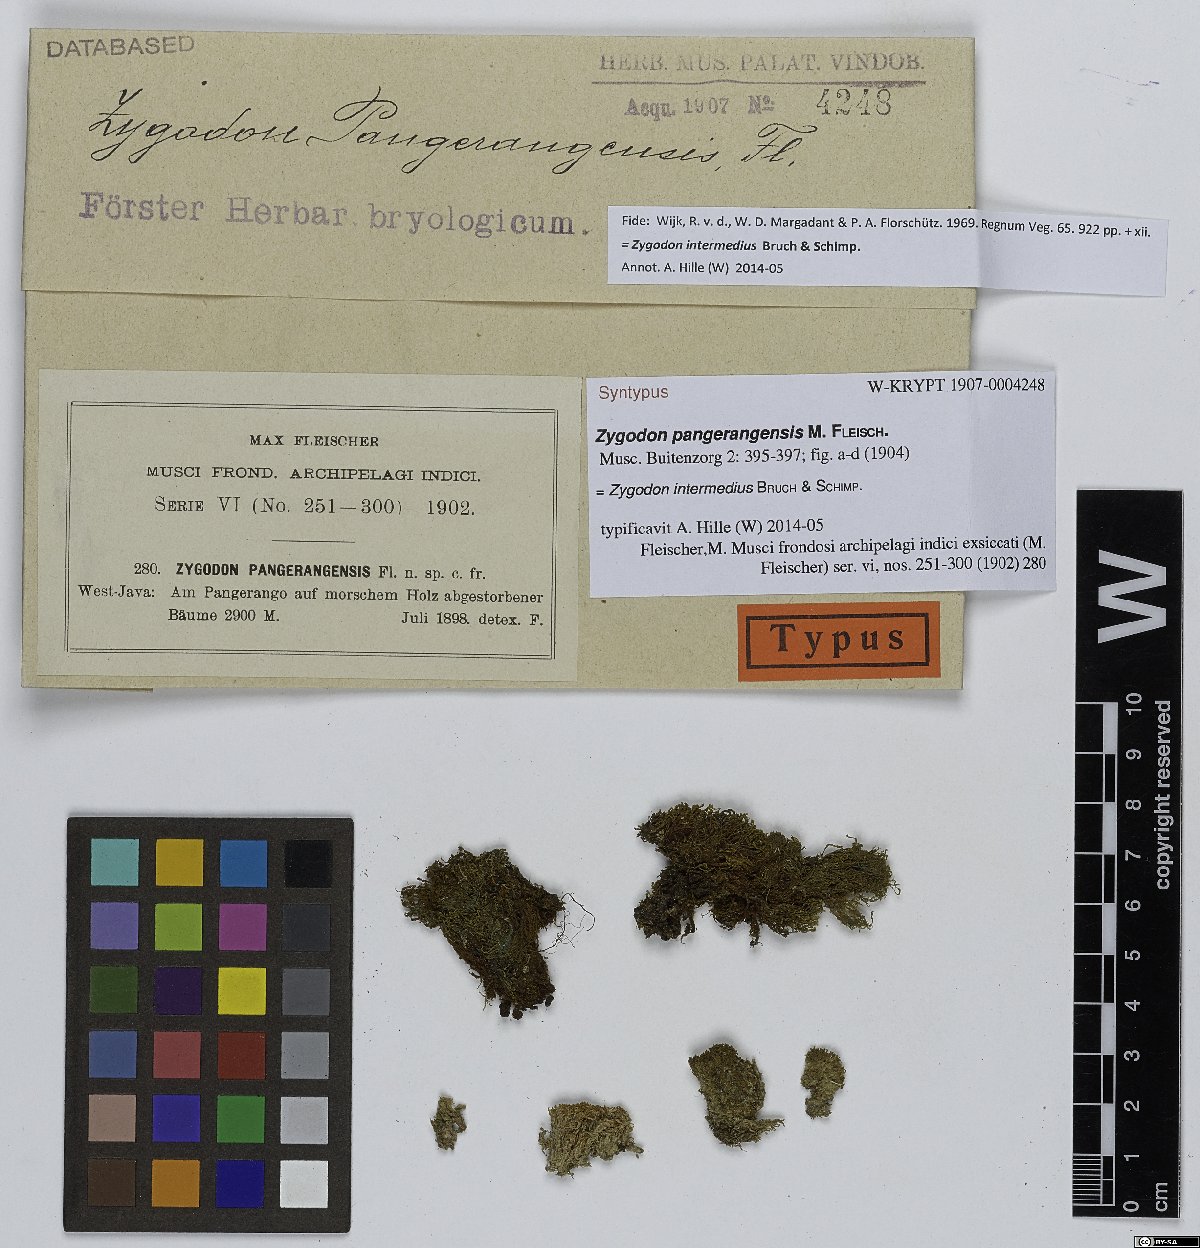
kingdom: Plantae
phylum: Bryophyta
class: Bryopsida
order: Orthotrichales
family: Orthotrichaceae
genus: Zygodon
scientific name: Zygodon intermedius
